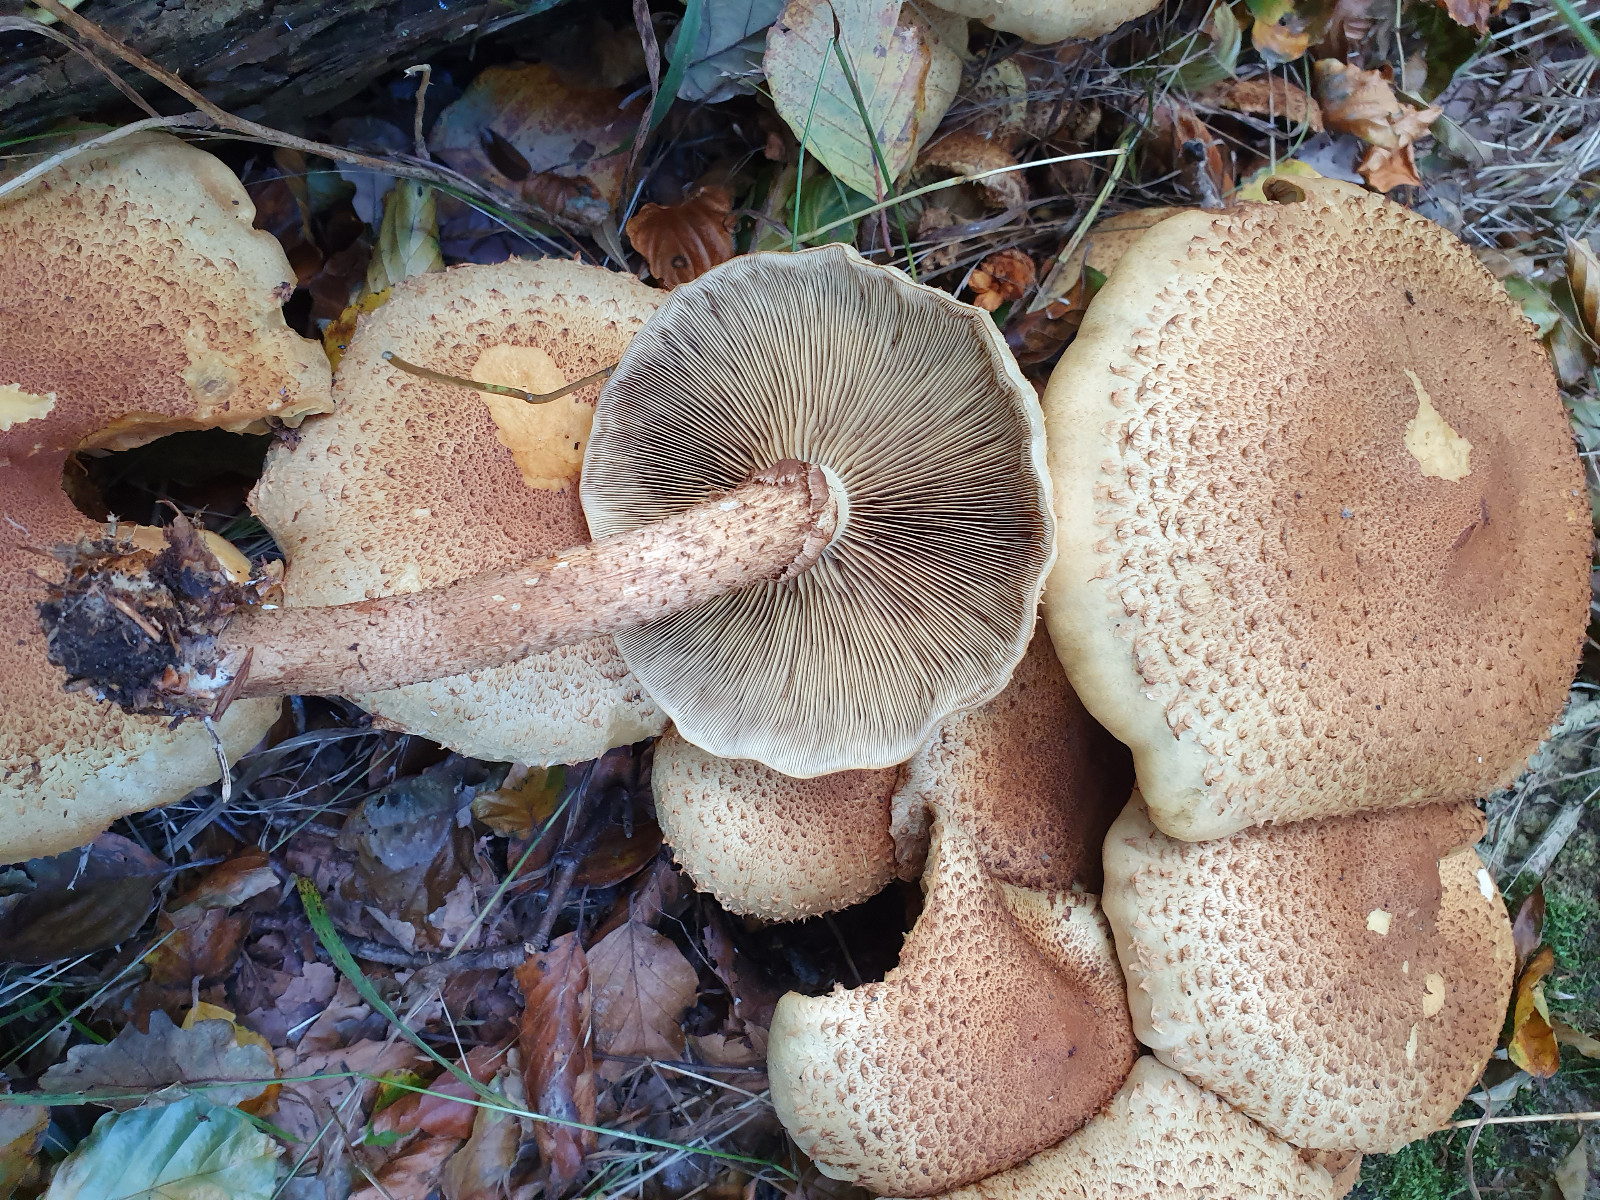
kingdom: Fungi
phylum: Basidiomycota
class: Agaricomycetes
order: Agaricales
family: Strophariaceae
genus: Pholiota
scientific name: Pholiota squarrosa
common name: krumskællet skælhat
